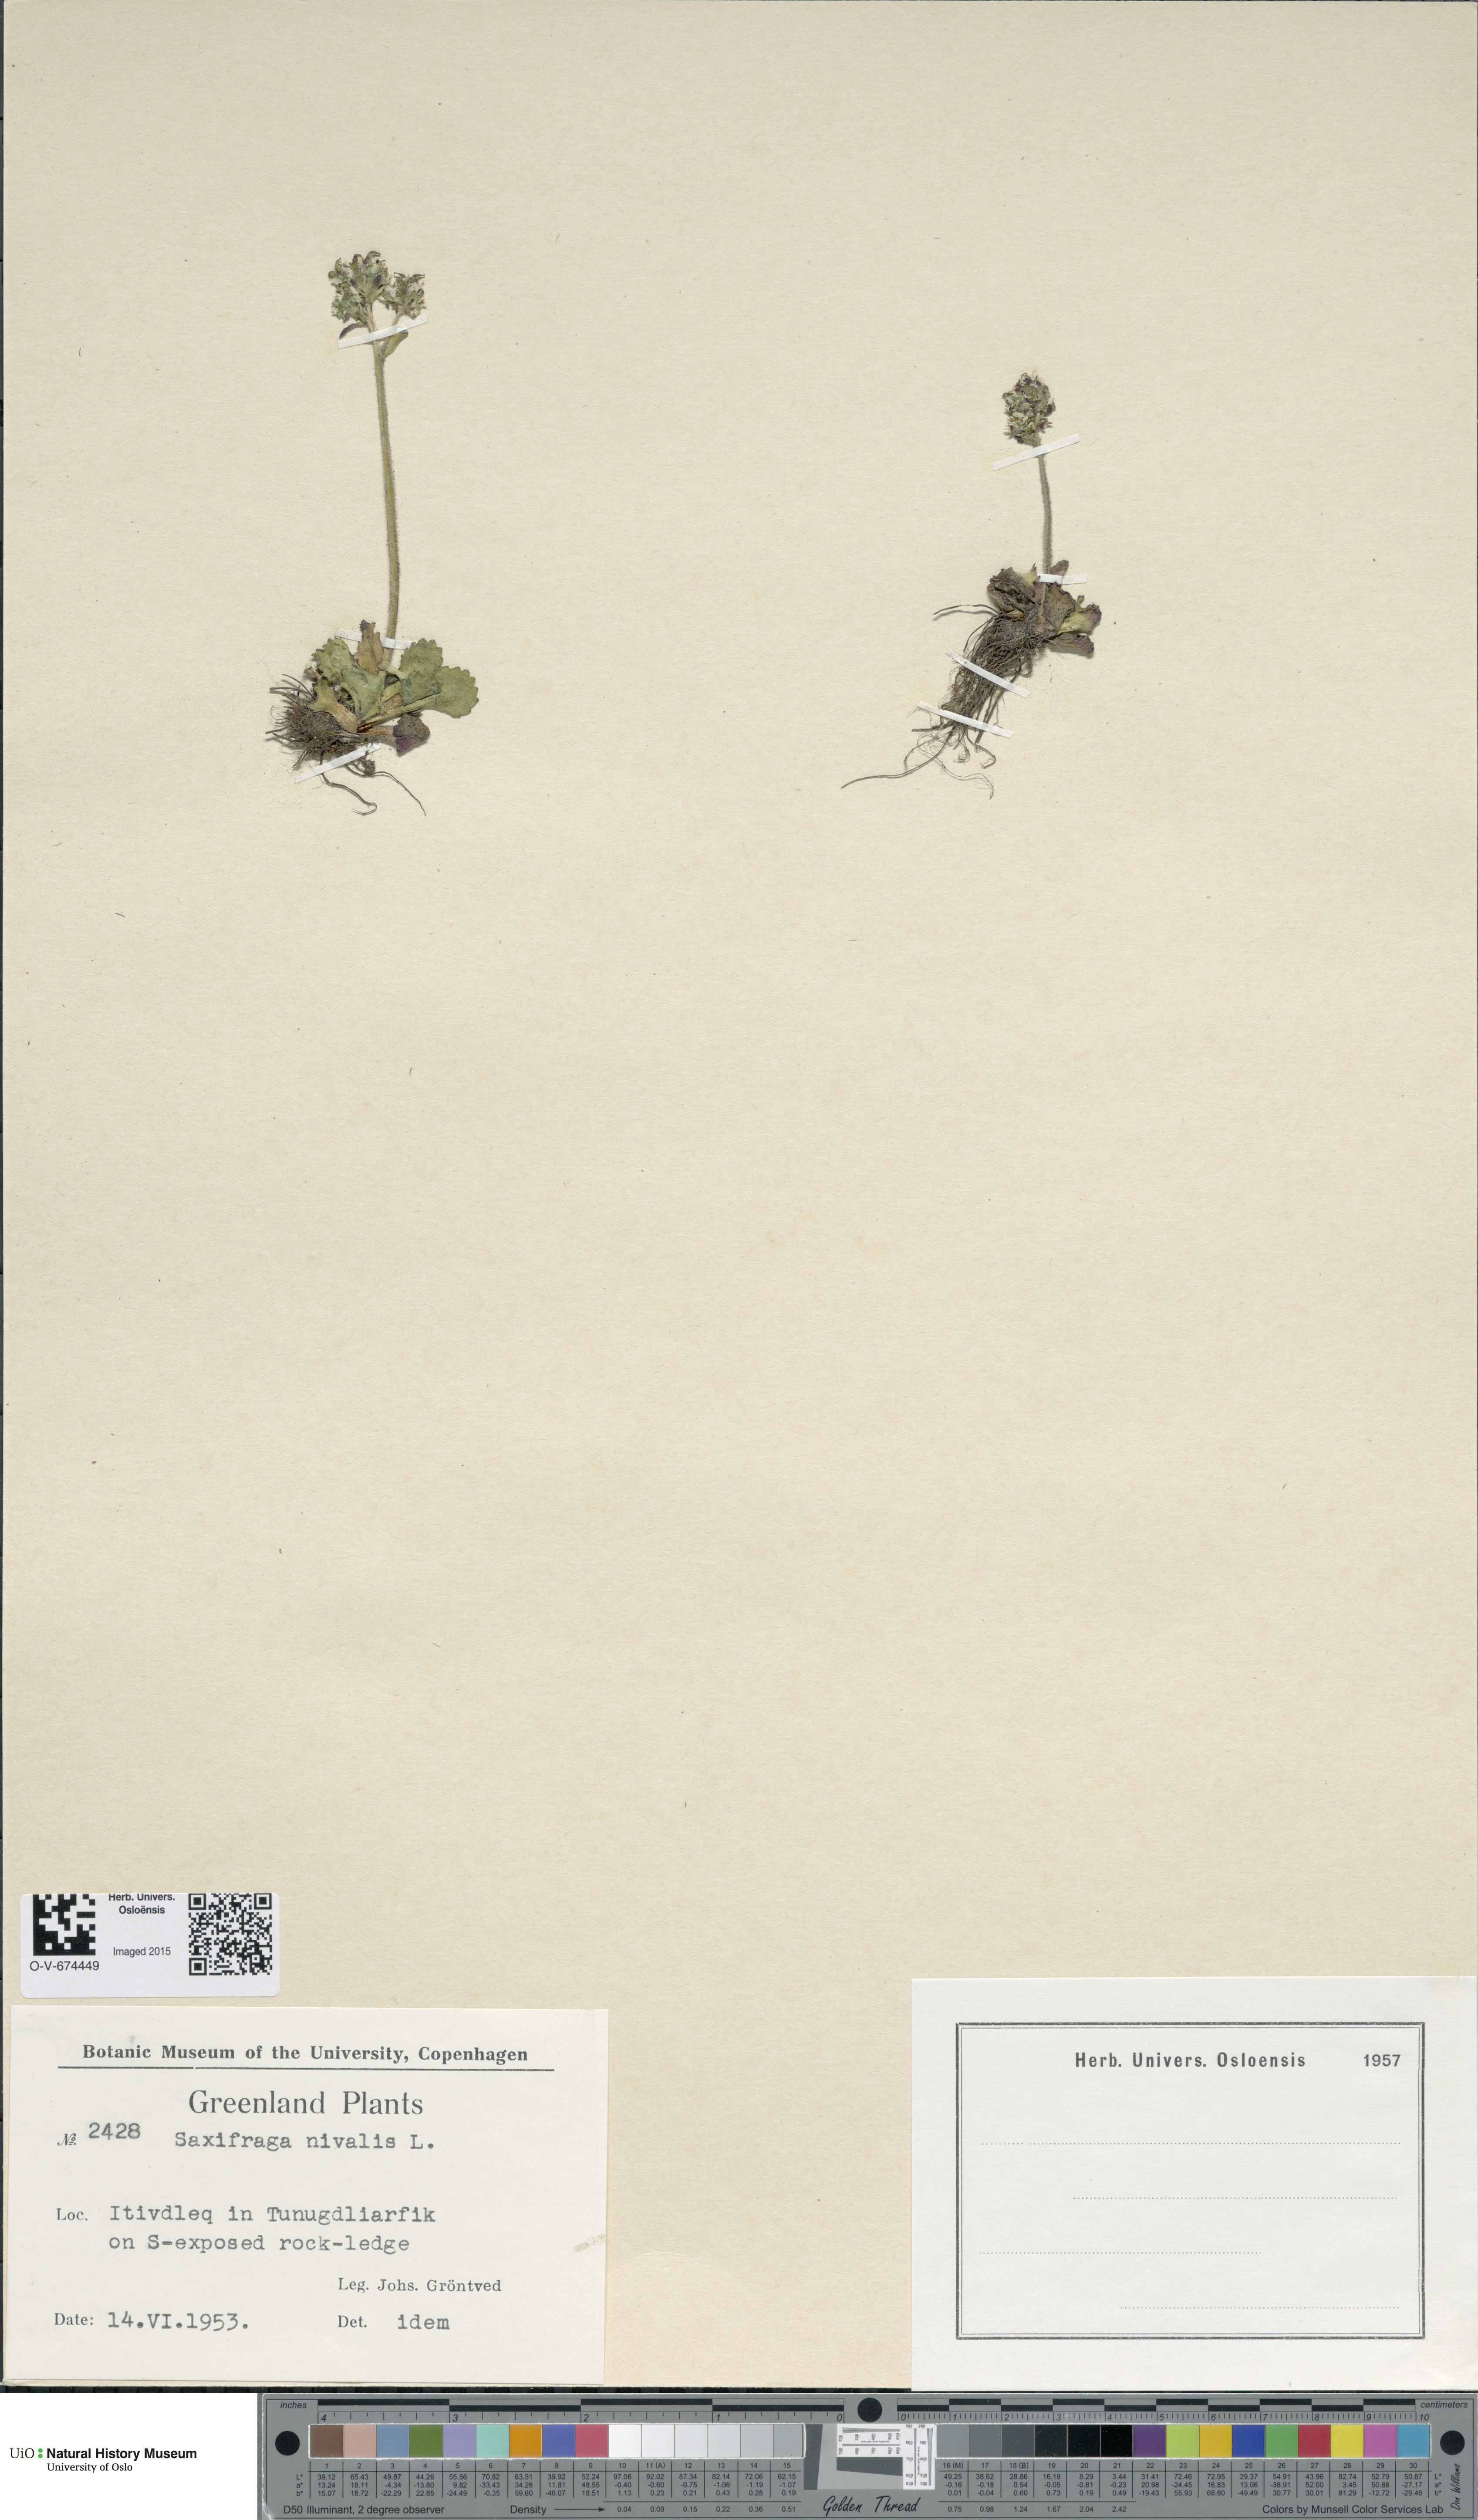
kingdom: Plantae
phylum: Tracheophyta
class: Magnoliopsida
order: Saxifragales
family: Saxifragaceae
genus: Micranthes
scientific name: Micranthes nivalis
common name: Alpine saxifrage
